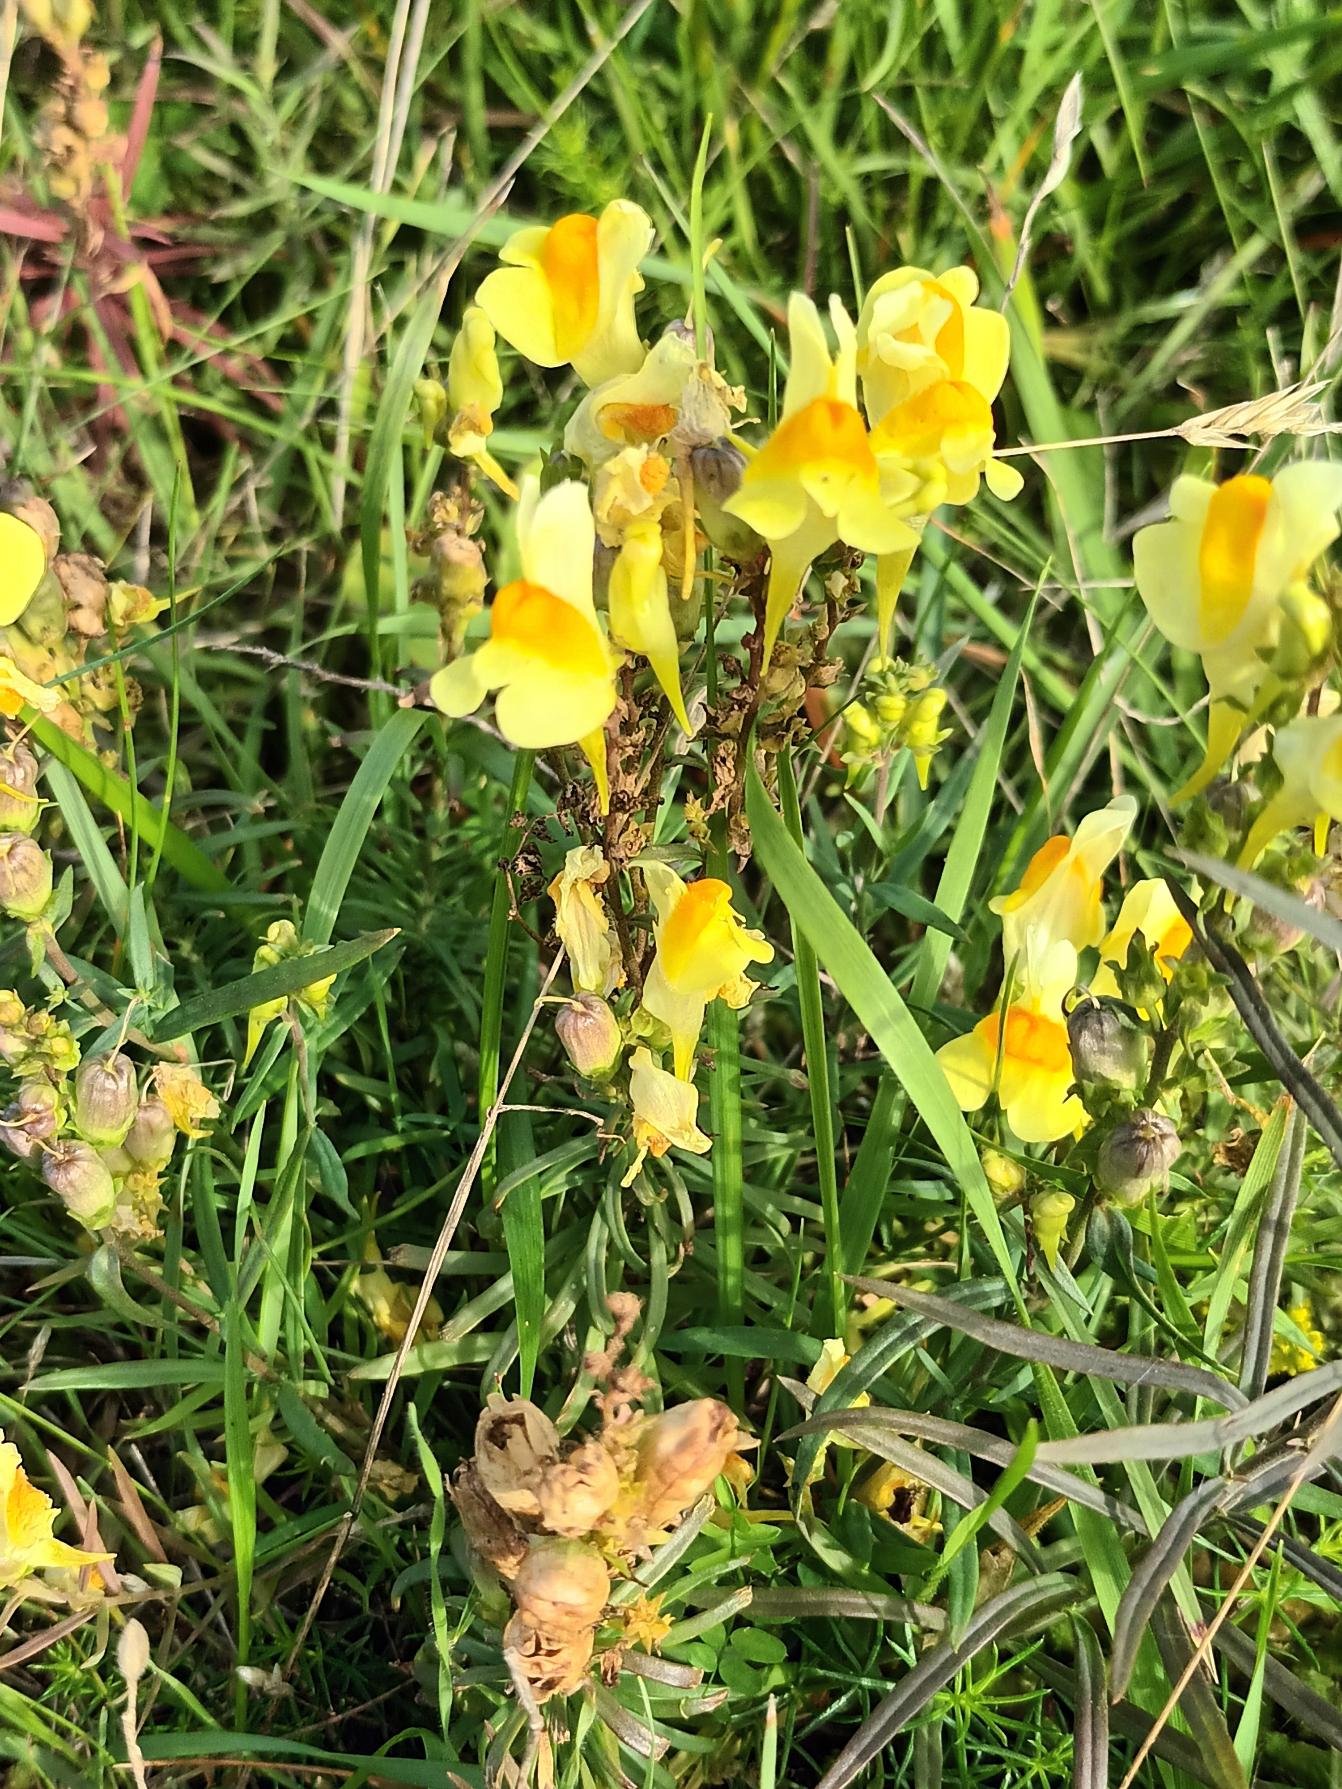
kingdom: Plantae
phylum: Tracheophyta
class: Magnoliopsida
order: Lamiales
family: Plantaginaceae
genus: Linaria
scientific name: Linaria vulgaris
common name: Almindelig torskemund
